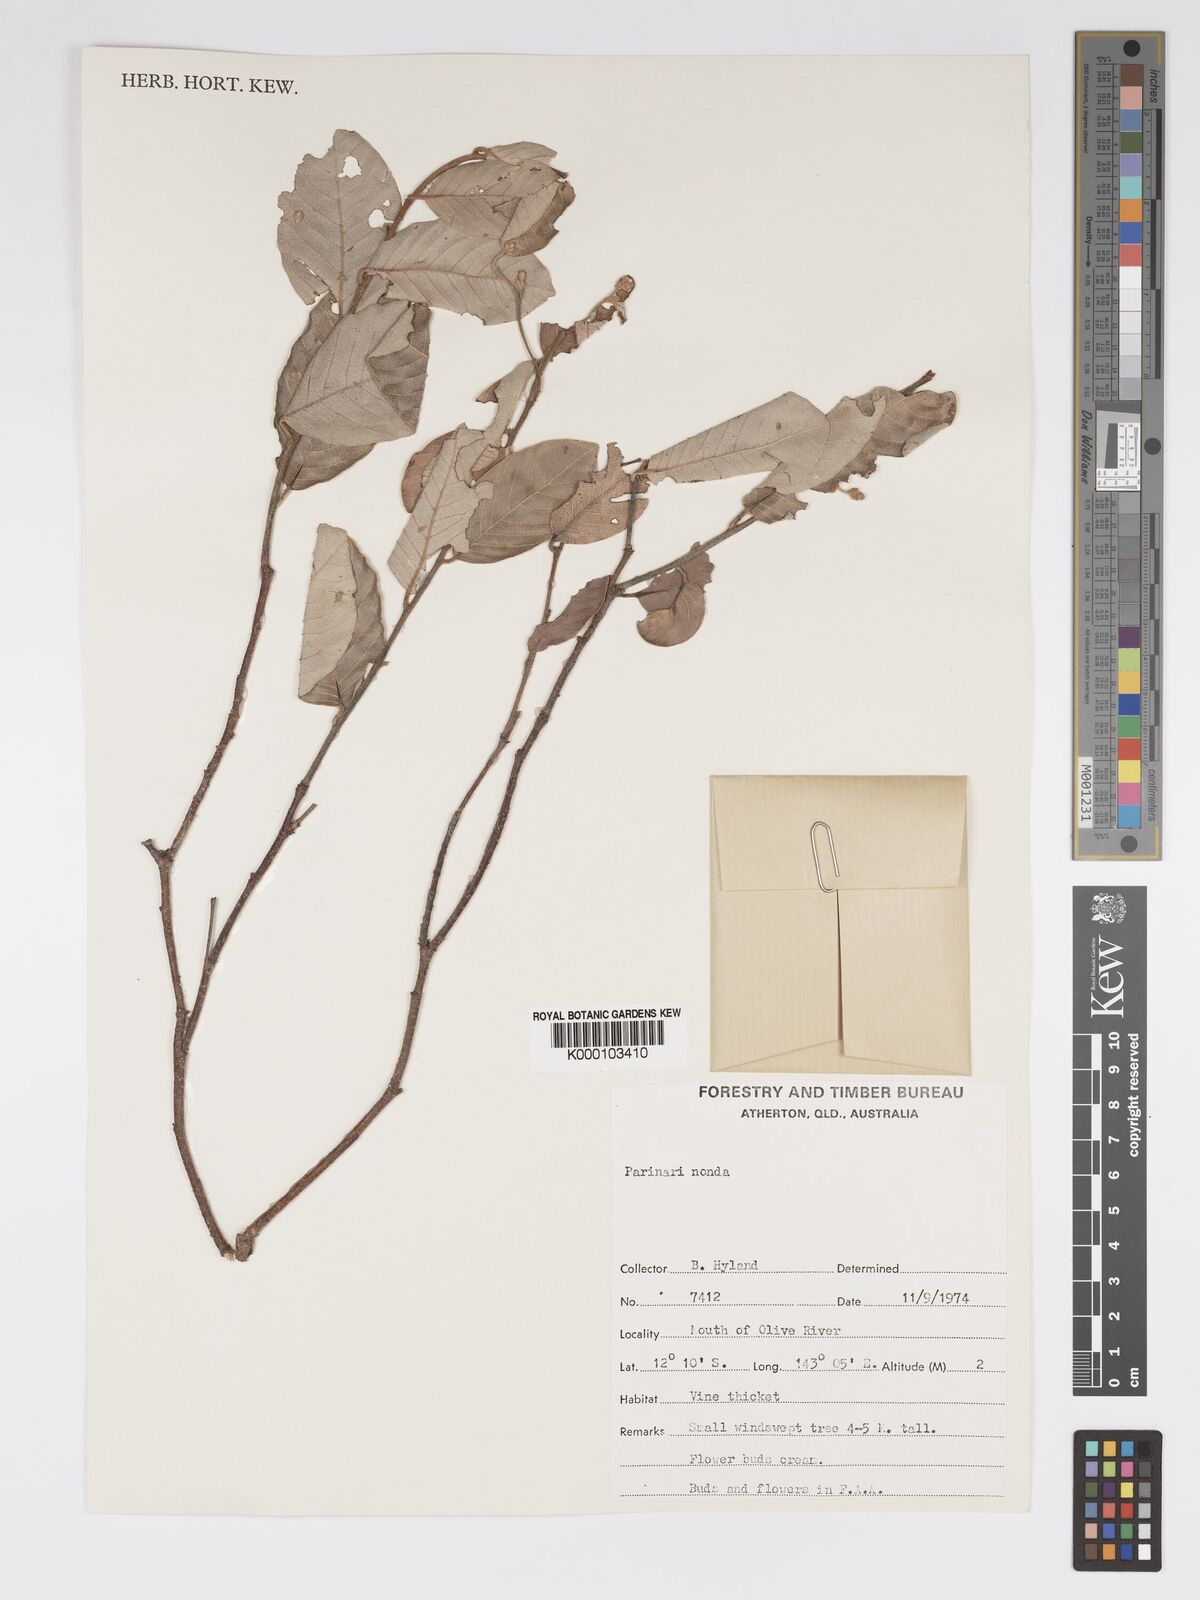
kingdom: Plantae
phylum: Tracheophyta
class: Magnoliopsida
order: Malpighiales
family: Chrysobalanaceae
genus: Parinari
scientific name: Parinari nonda
